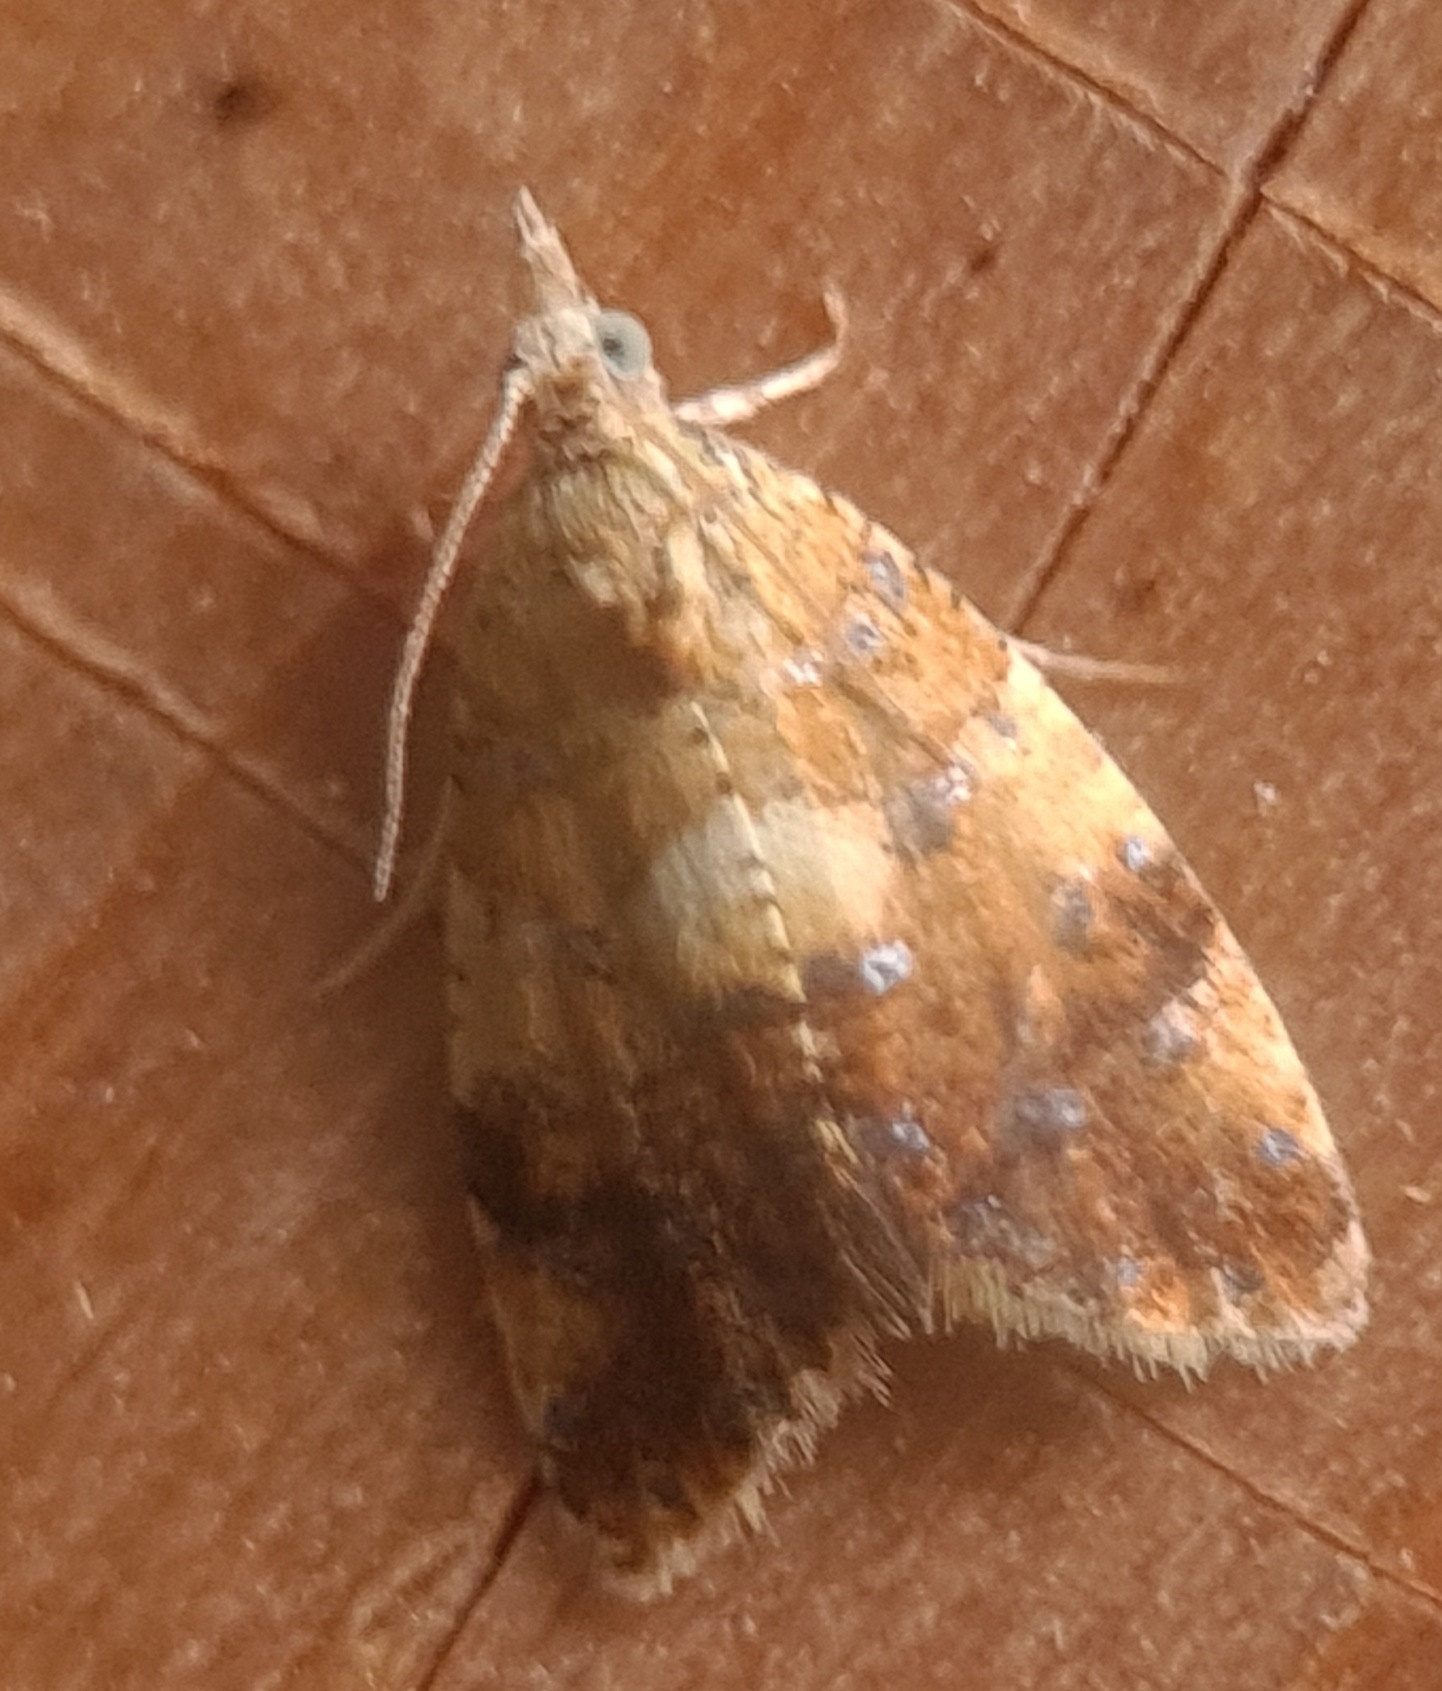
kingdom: Animalia
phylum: Arthropoda
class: Insecta
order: Lepidoptera
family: Tortricidae
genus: Pseudargyrotoza
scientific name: Pseudargyrotoza conwagana
